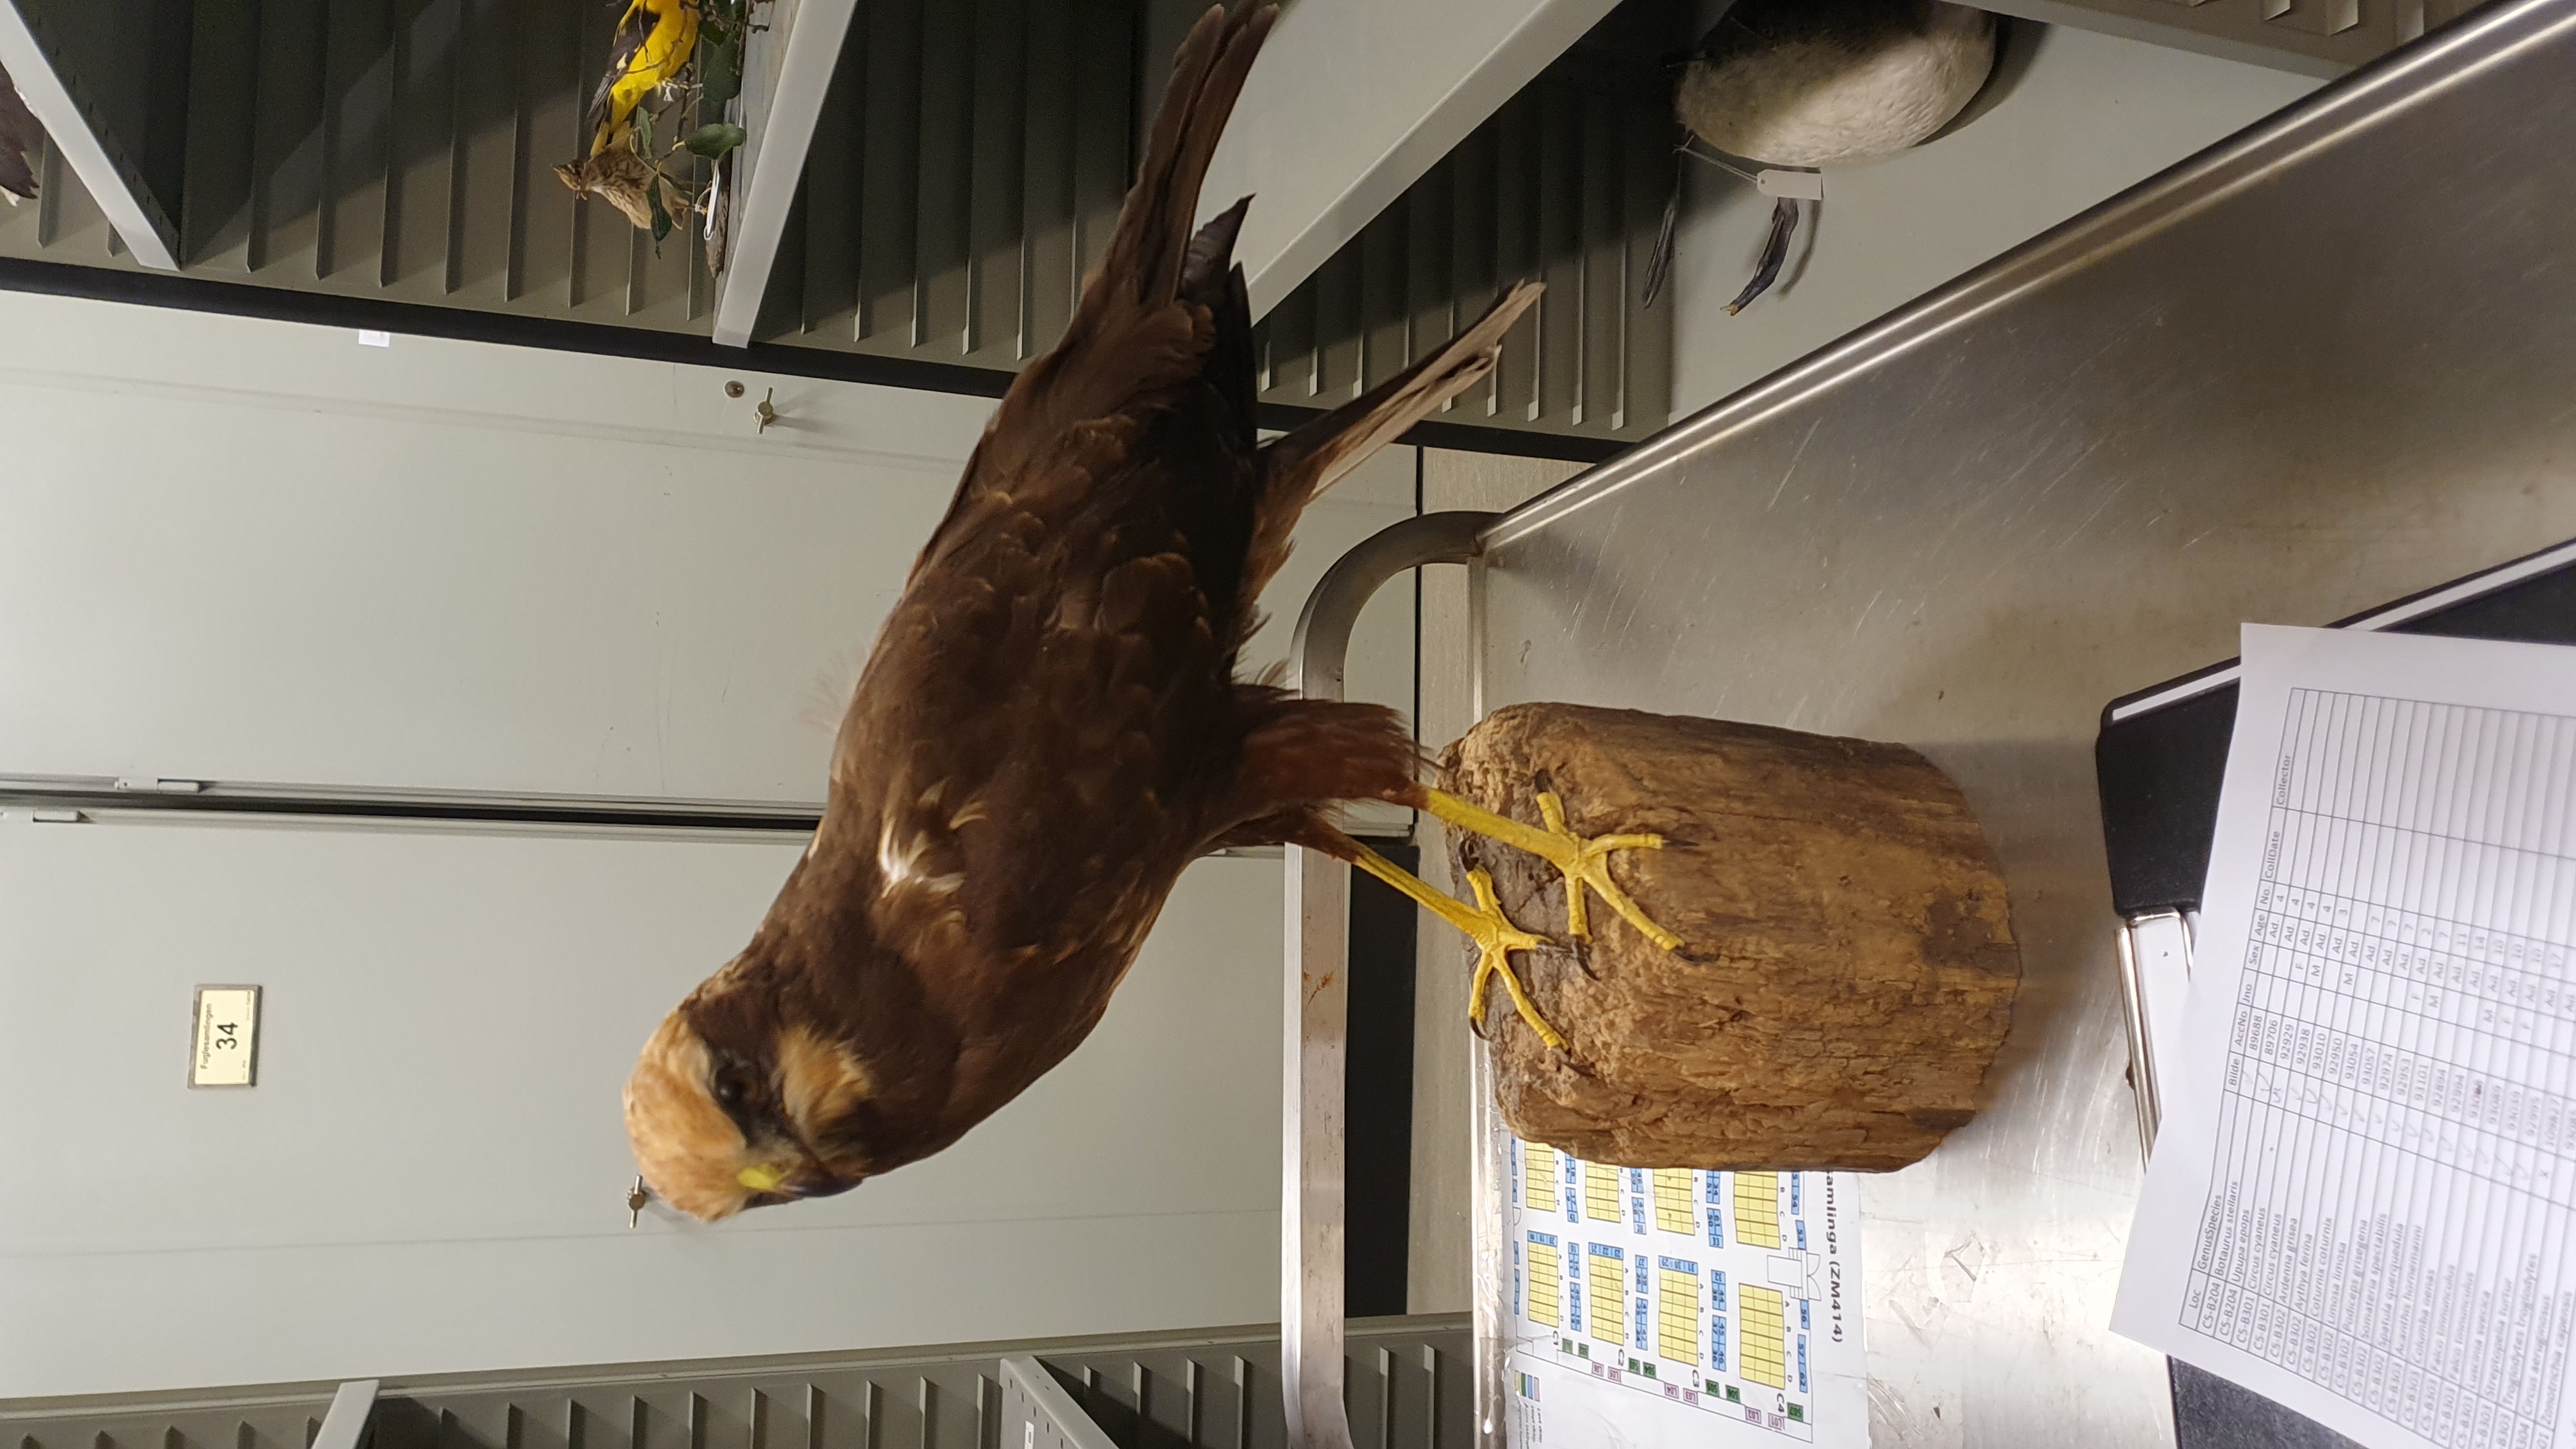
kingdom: Animalia
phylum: Chordata
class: Aves
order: Accipitriformes
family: Accipitridae
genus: Circus
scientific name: Circus aeruginosus
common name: Western marsh harrier
